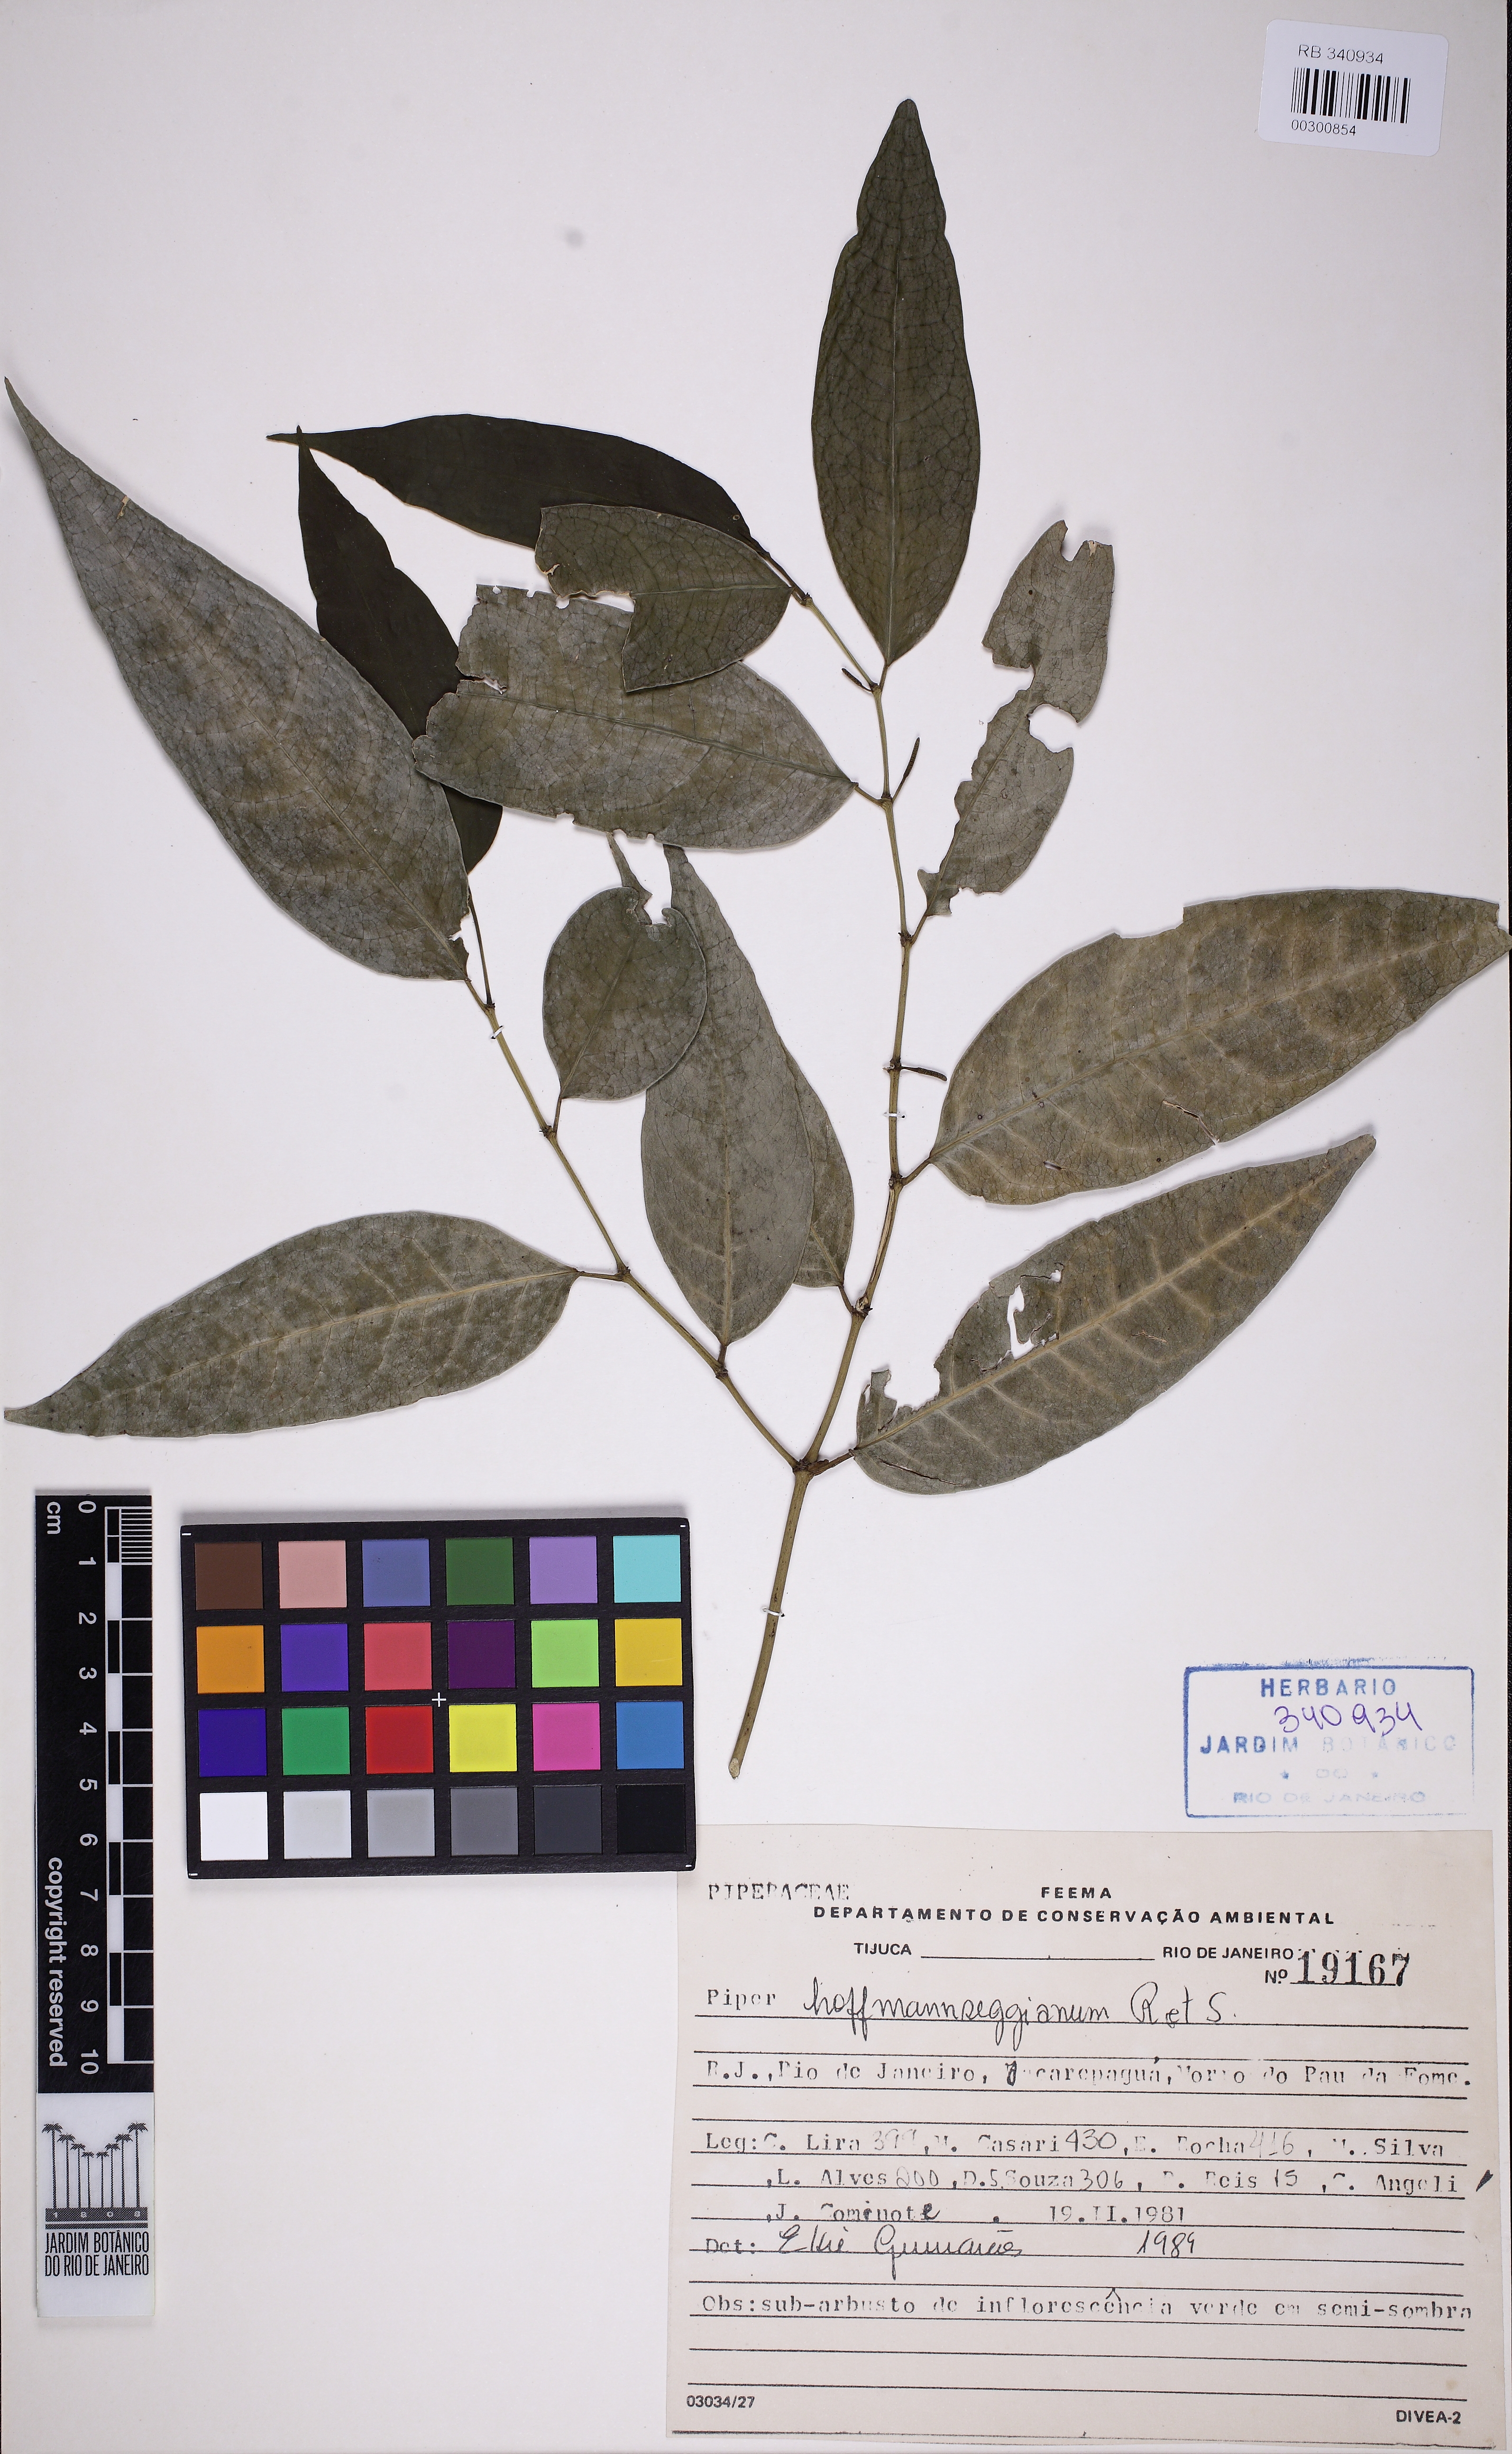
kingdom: Plantae
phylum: Tracheophyta
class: Magnoliopsida
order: Piperales
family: Piperaceae
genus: Piper
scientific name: Piper hoffmannseggianum
